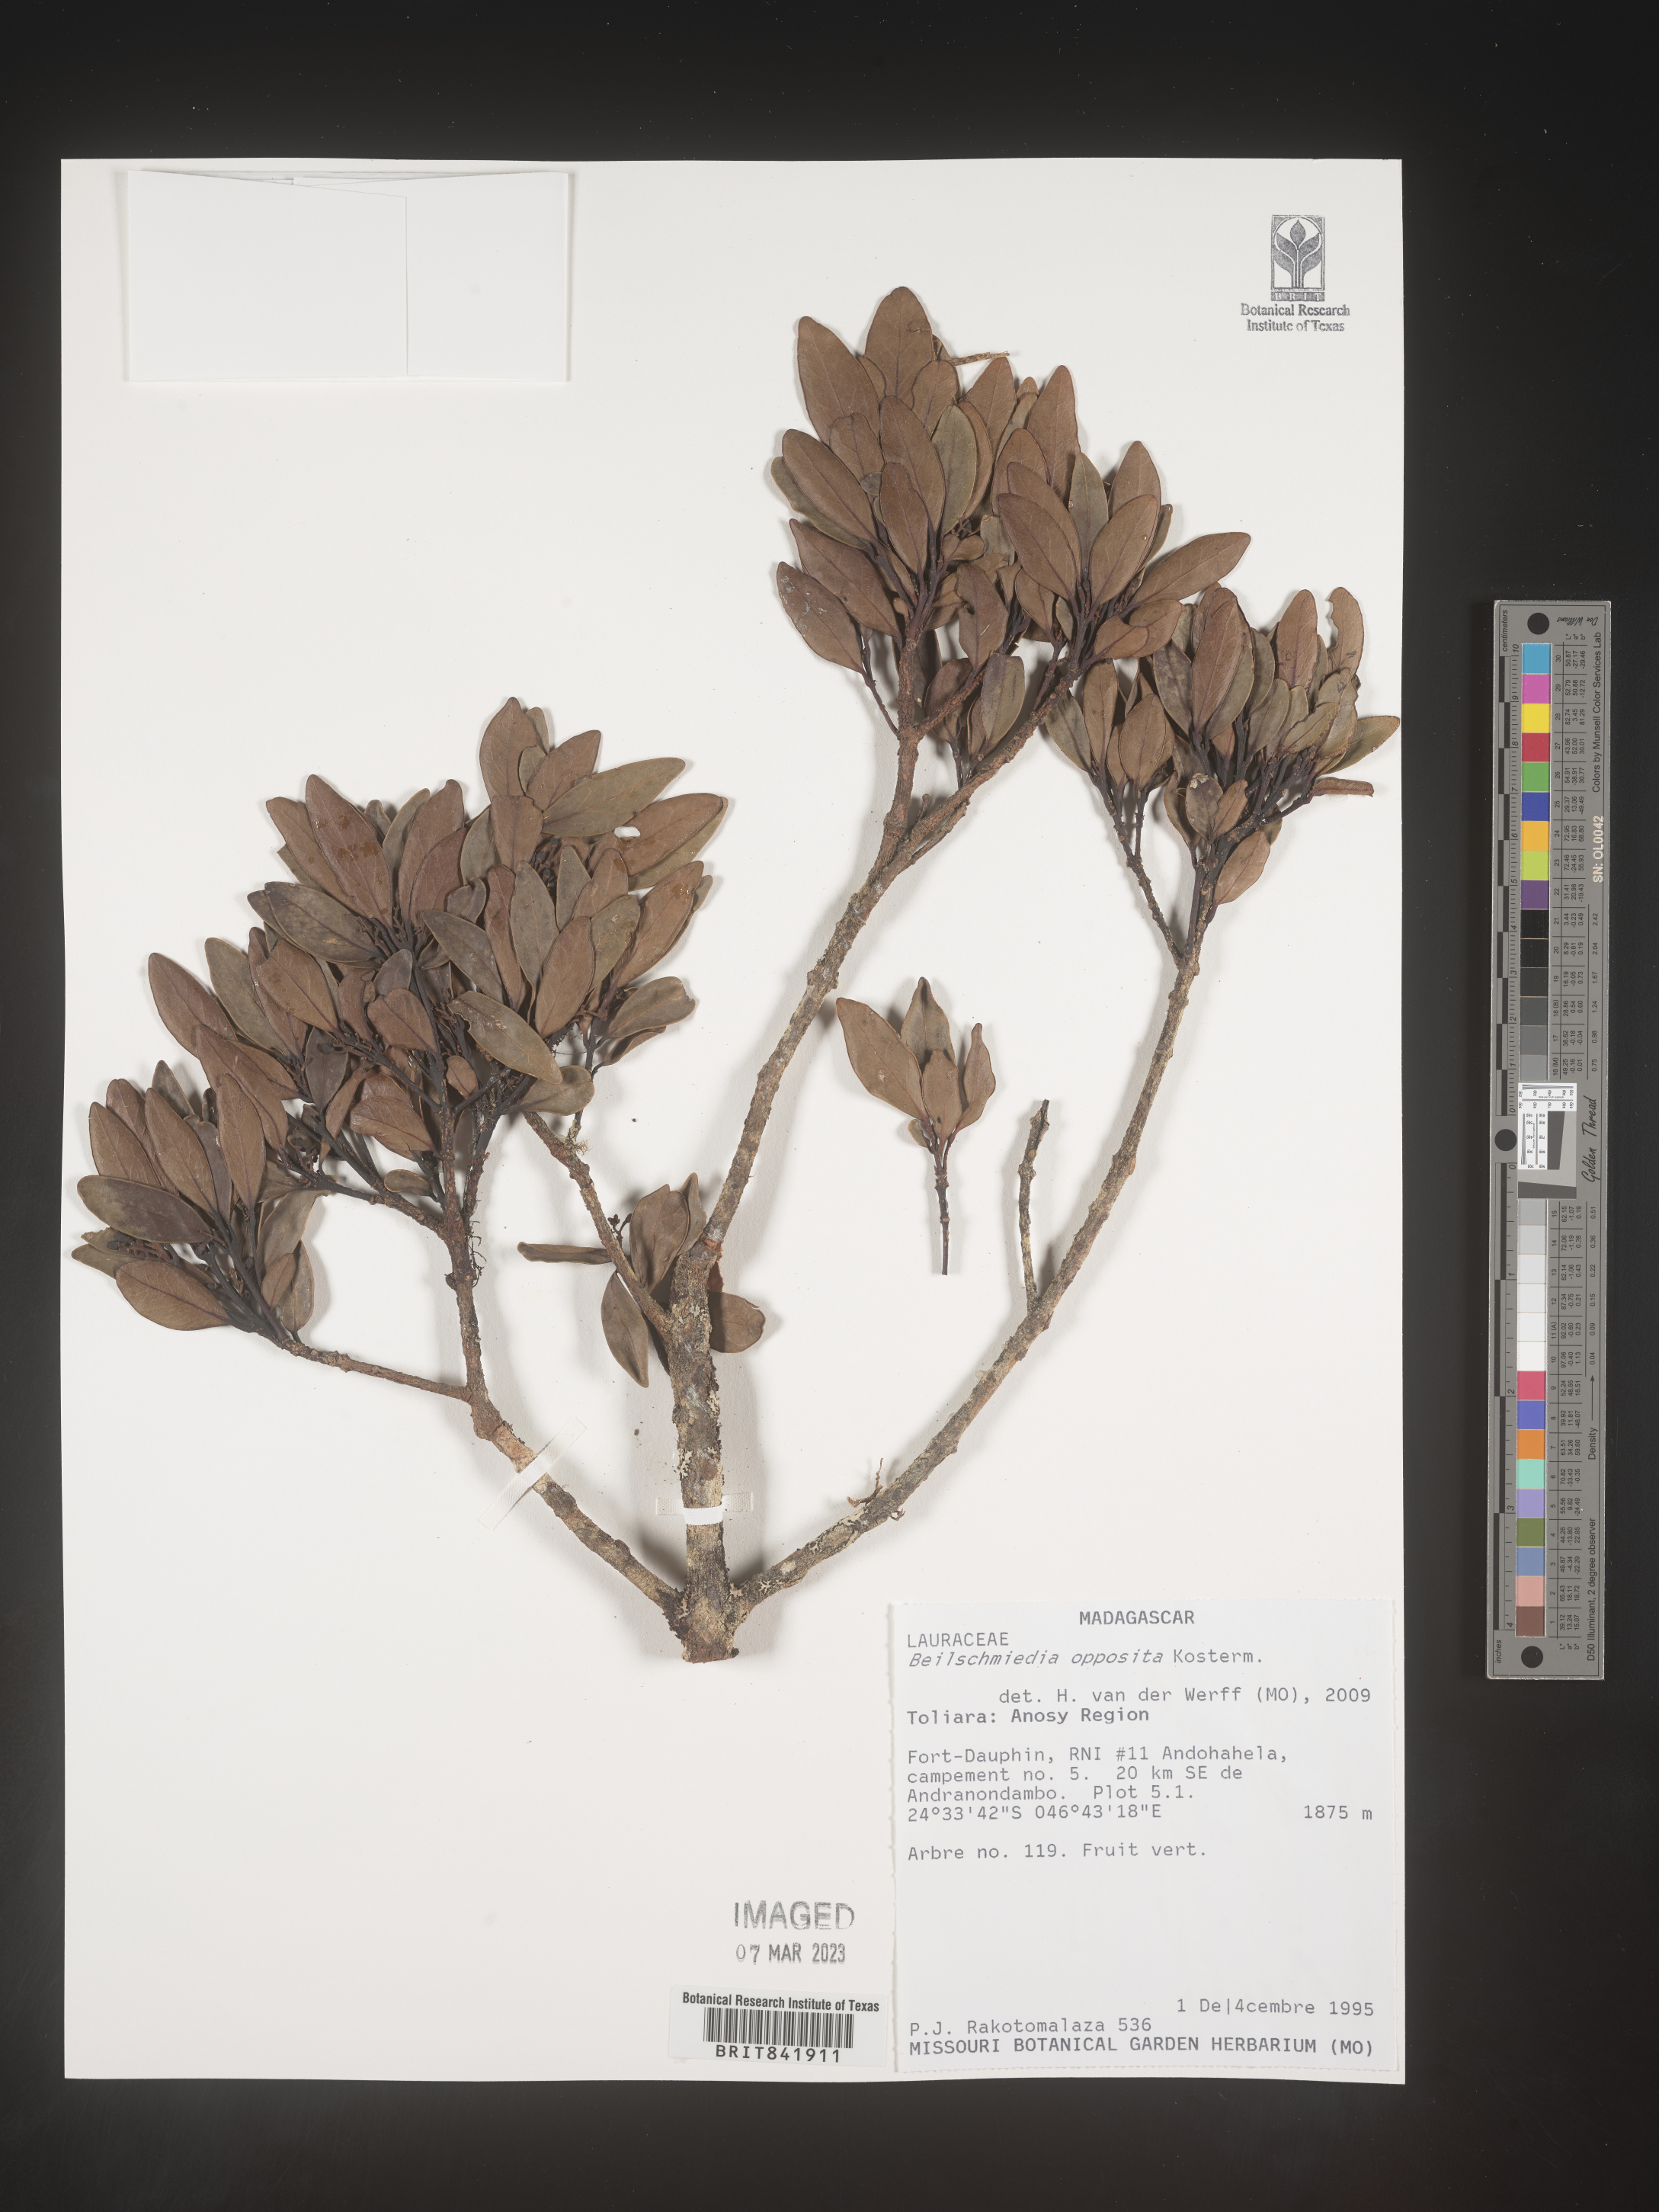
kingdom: Plantae
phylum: Tracheophyta
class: Magnoliopsida
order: Laurales
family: Lauraceae
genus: Beilschmiedia
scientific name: Beilschmiedia opposita
